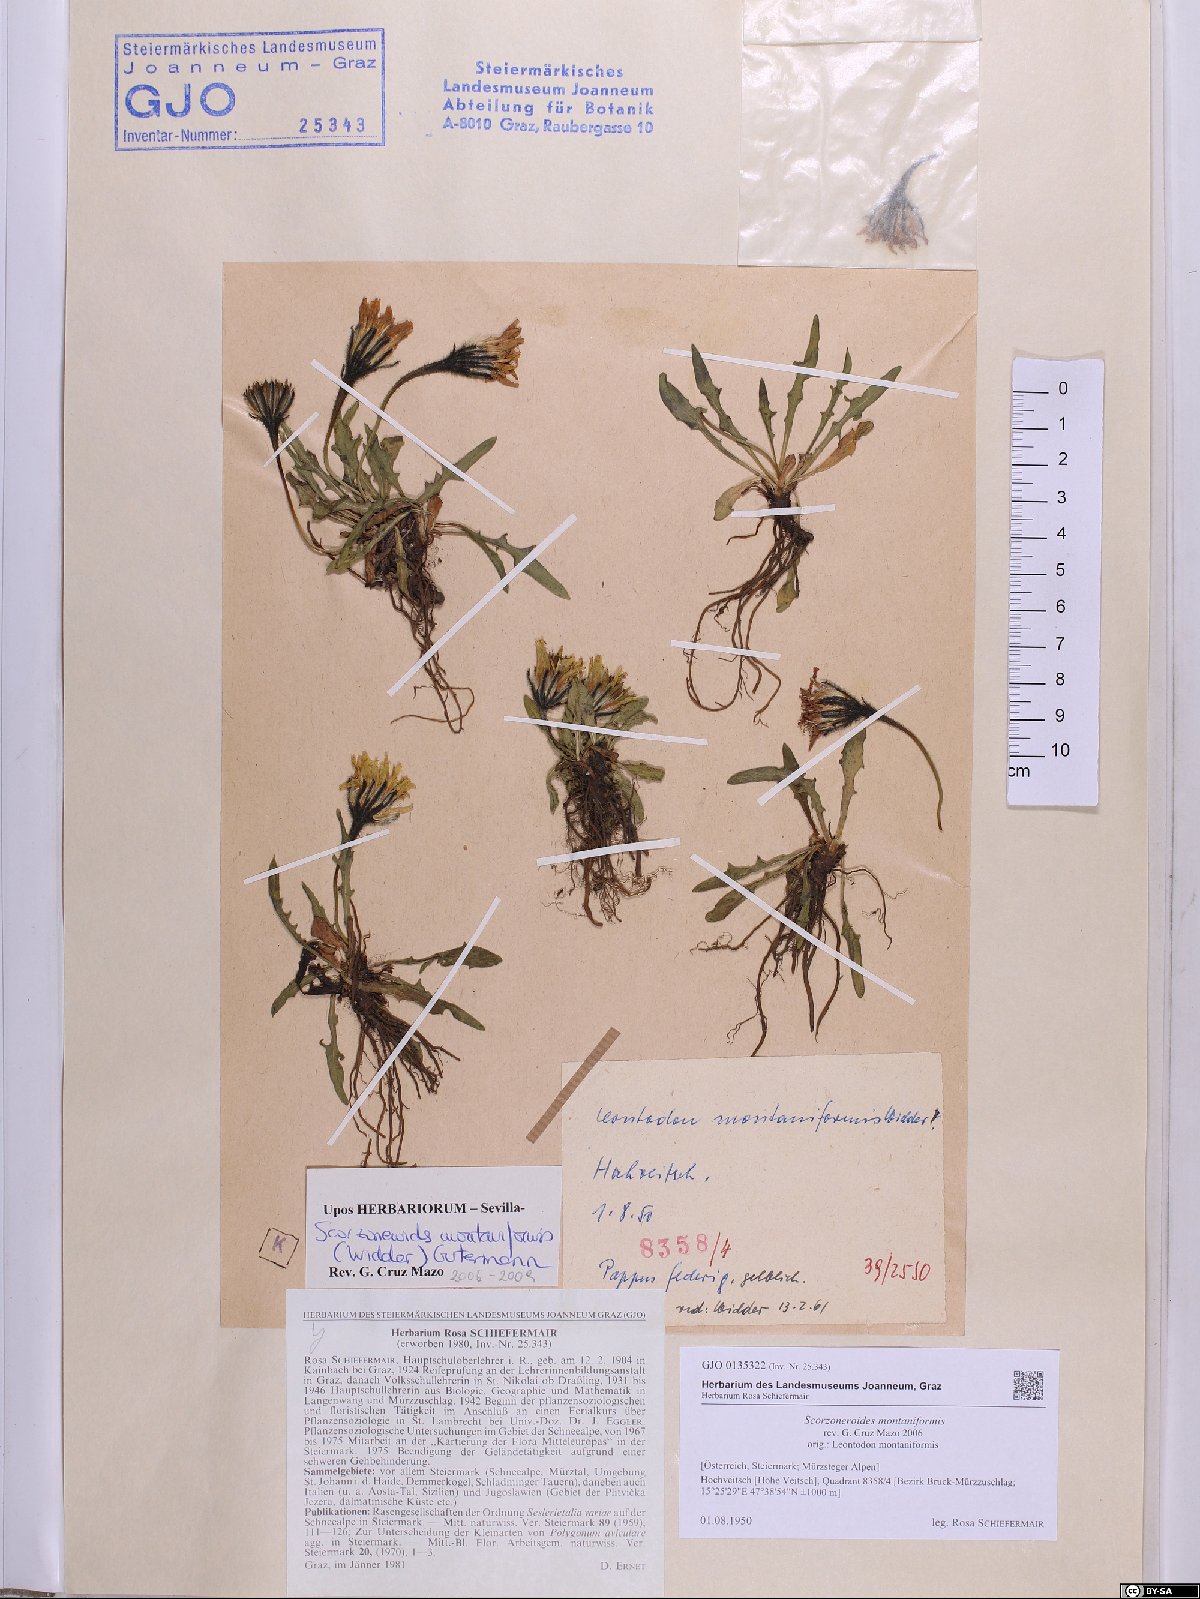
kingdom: Plantae
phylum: Tracheophyta
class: Magnoliopsida
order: Asterales
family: Asteraceae
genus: Scorzoneroides
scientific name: Scorzoneroides montana
